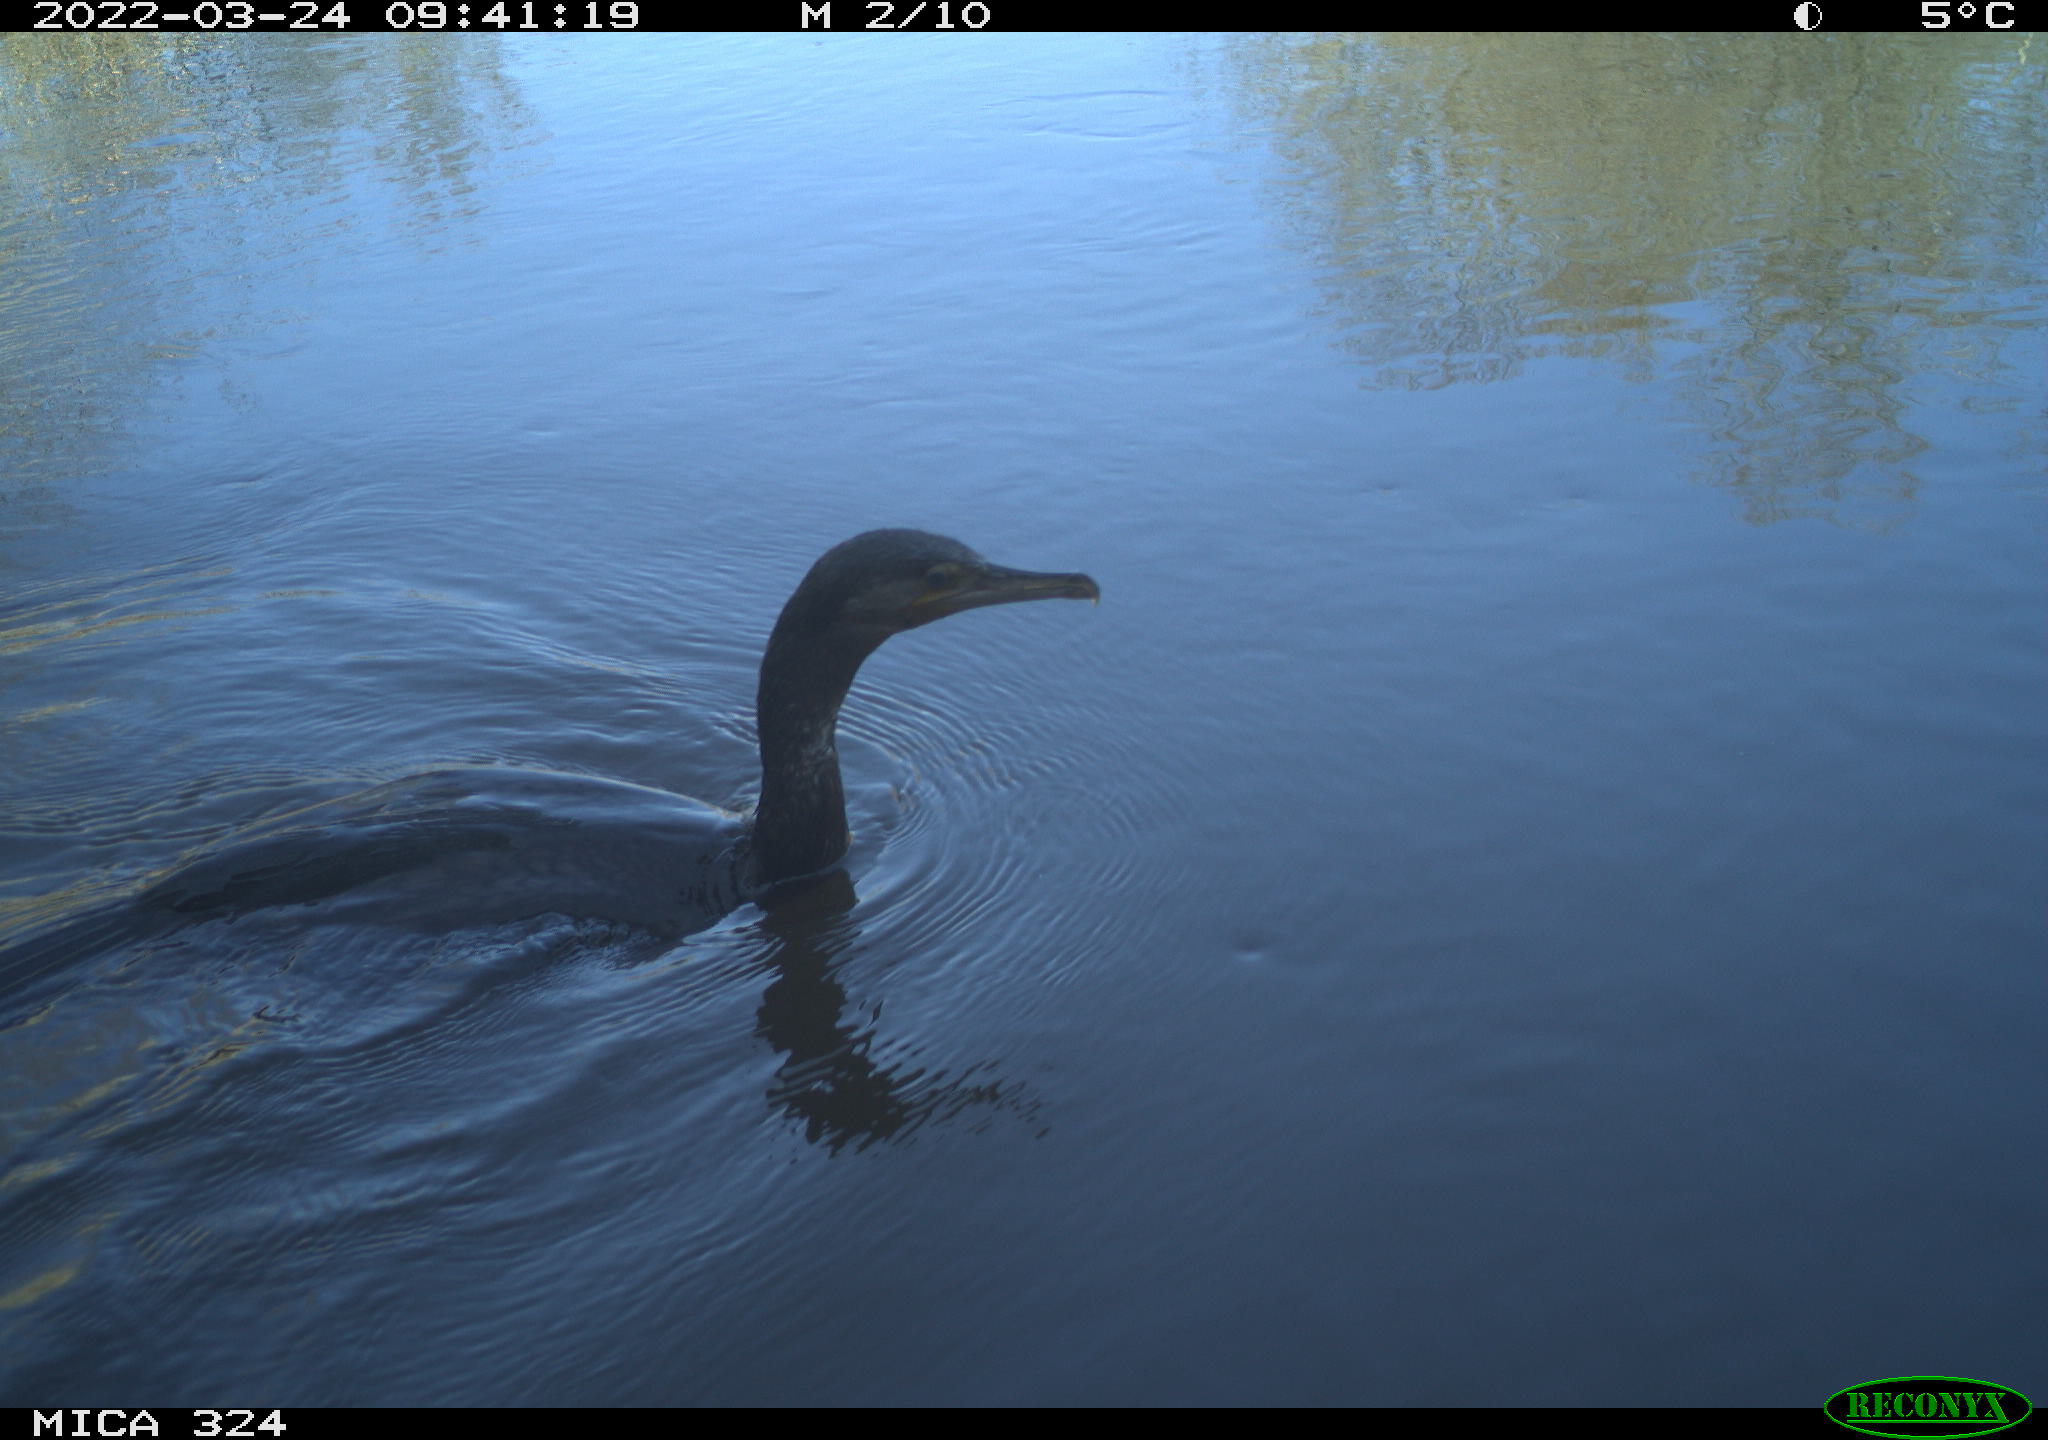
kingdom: Animalia
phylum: Chordata
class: Aves
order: Suliformes
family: Phalacrocoracidae
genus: Phalacrocorax
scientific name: Phalacrocorax carbo
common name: Great cormorant
